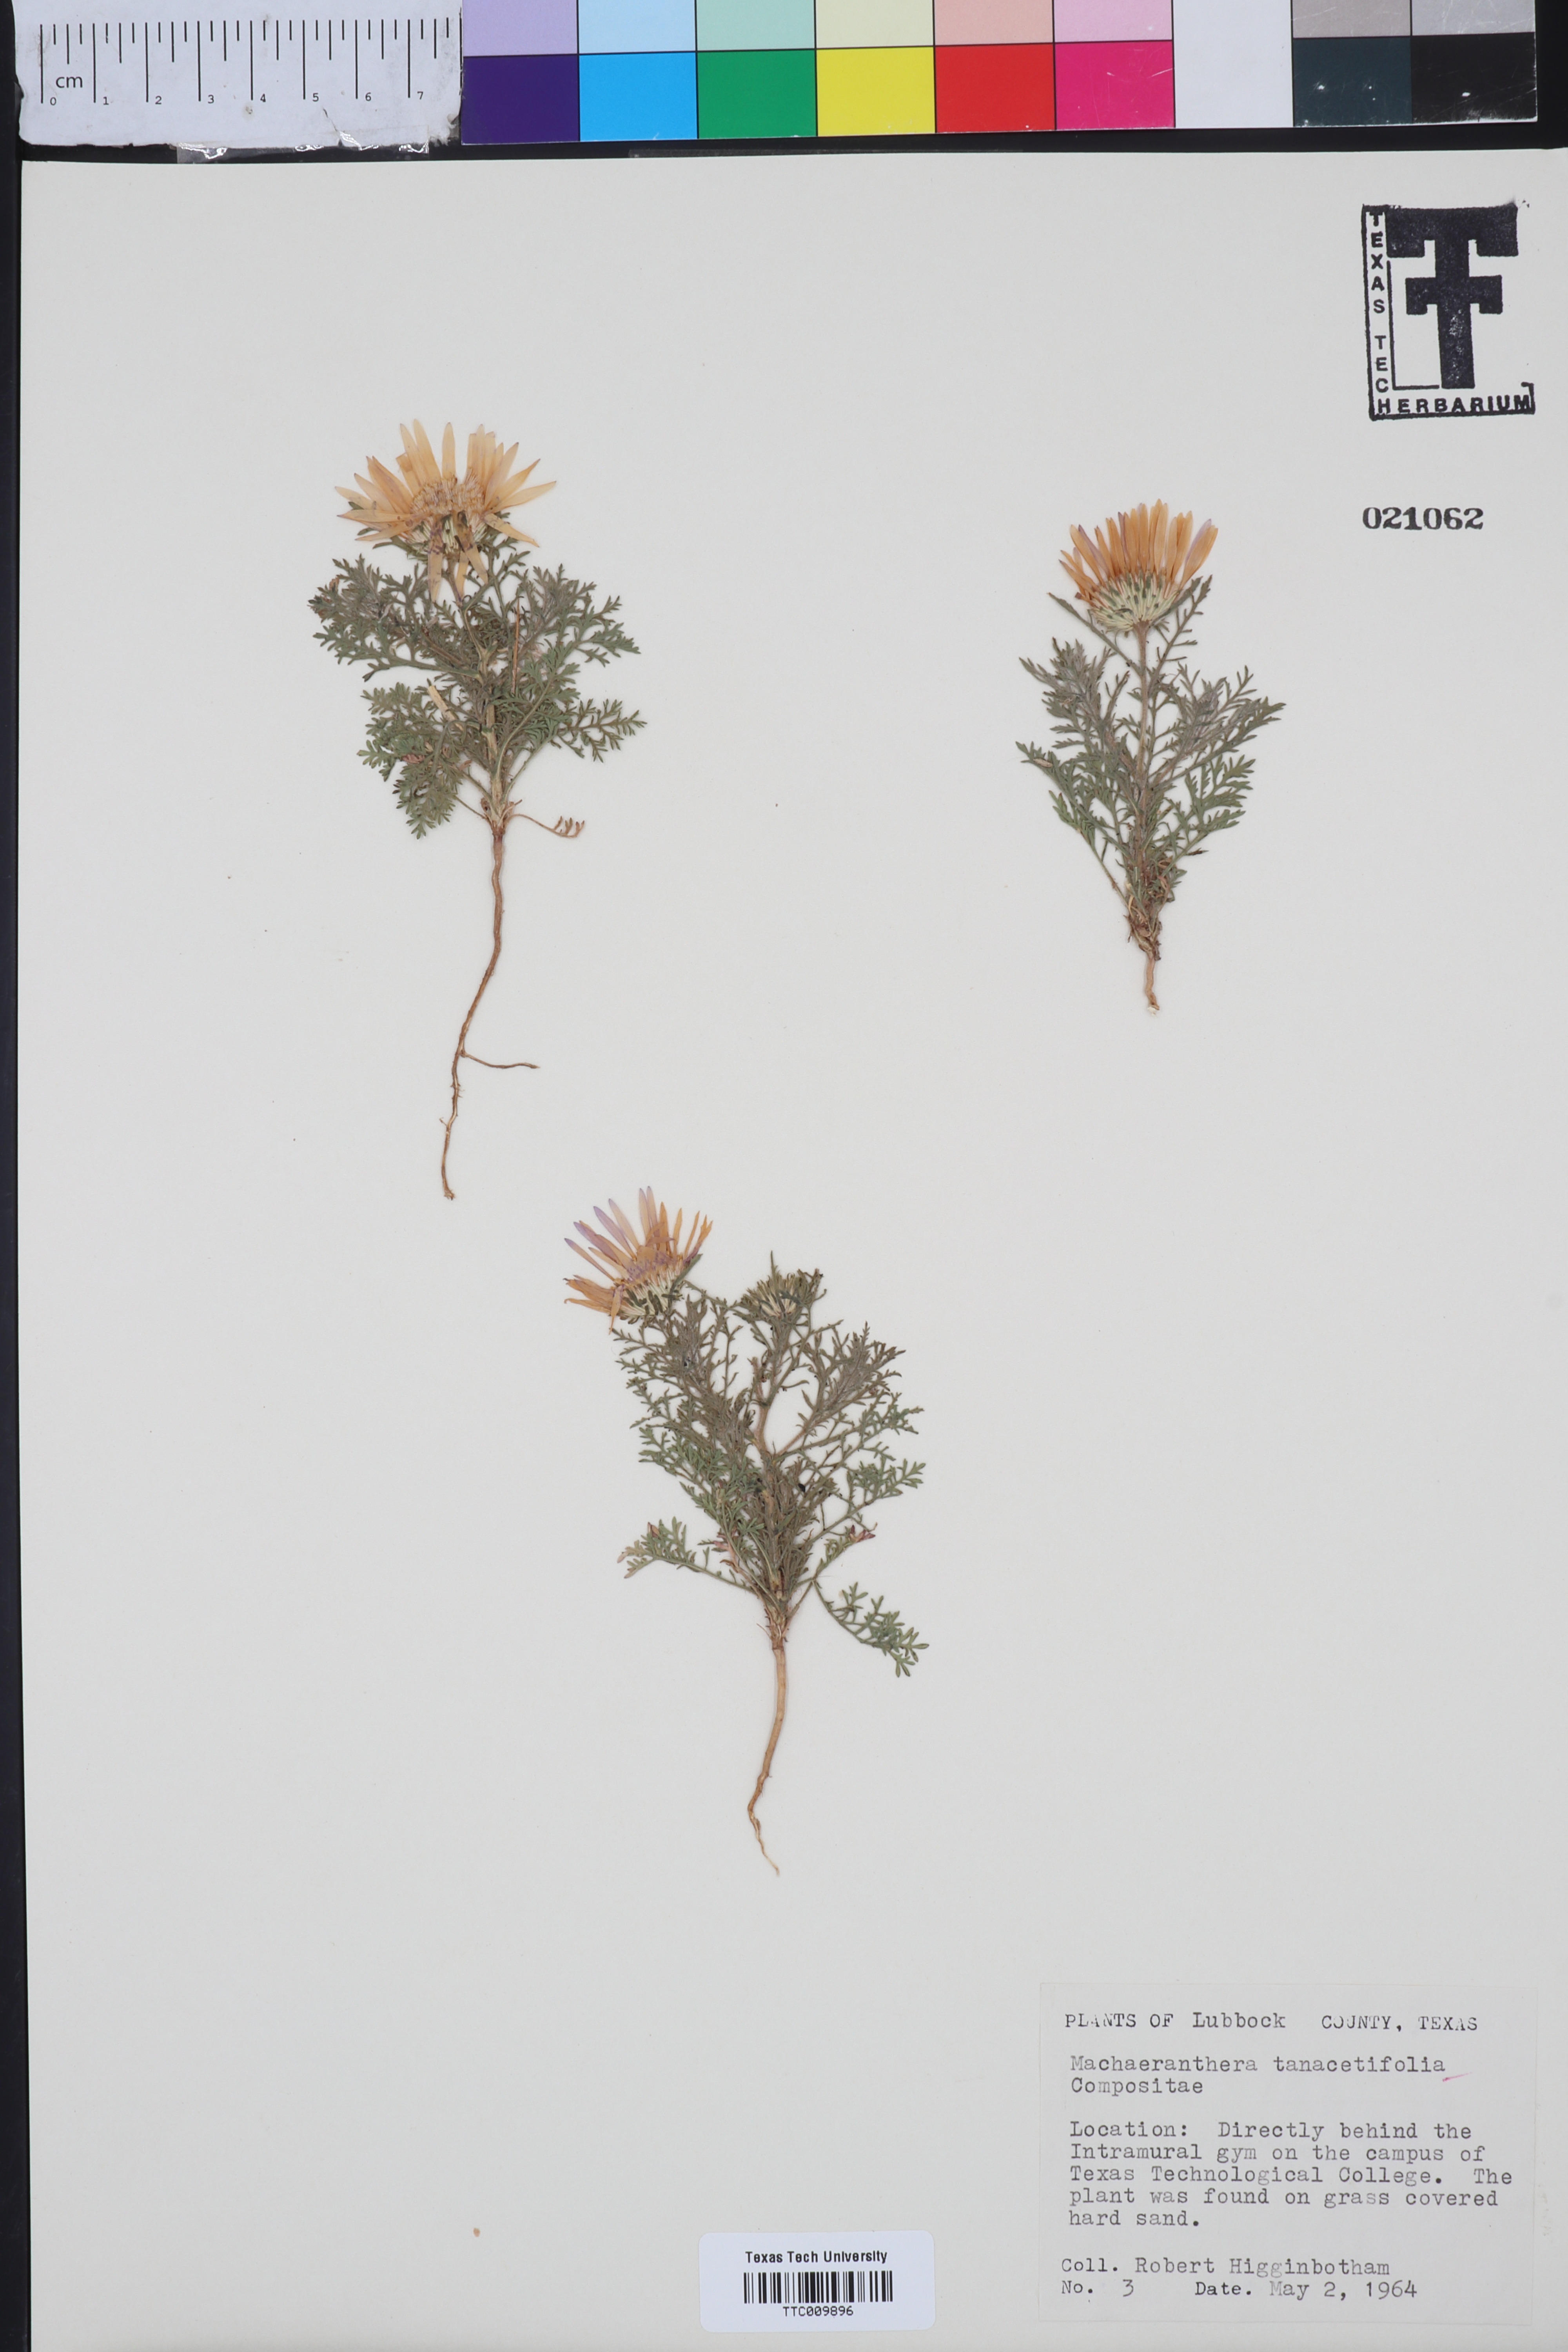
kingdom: Plantae
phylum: Tracheophyta
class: Magnoliopsida
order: Asterales
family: Asteraceae
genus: Machaeranthera
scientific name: Machaeranthera tanacetifolia
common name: Tansy-aster
